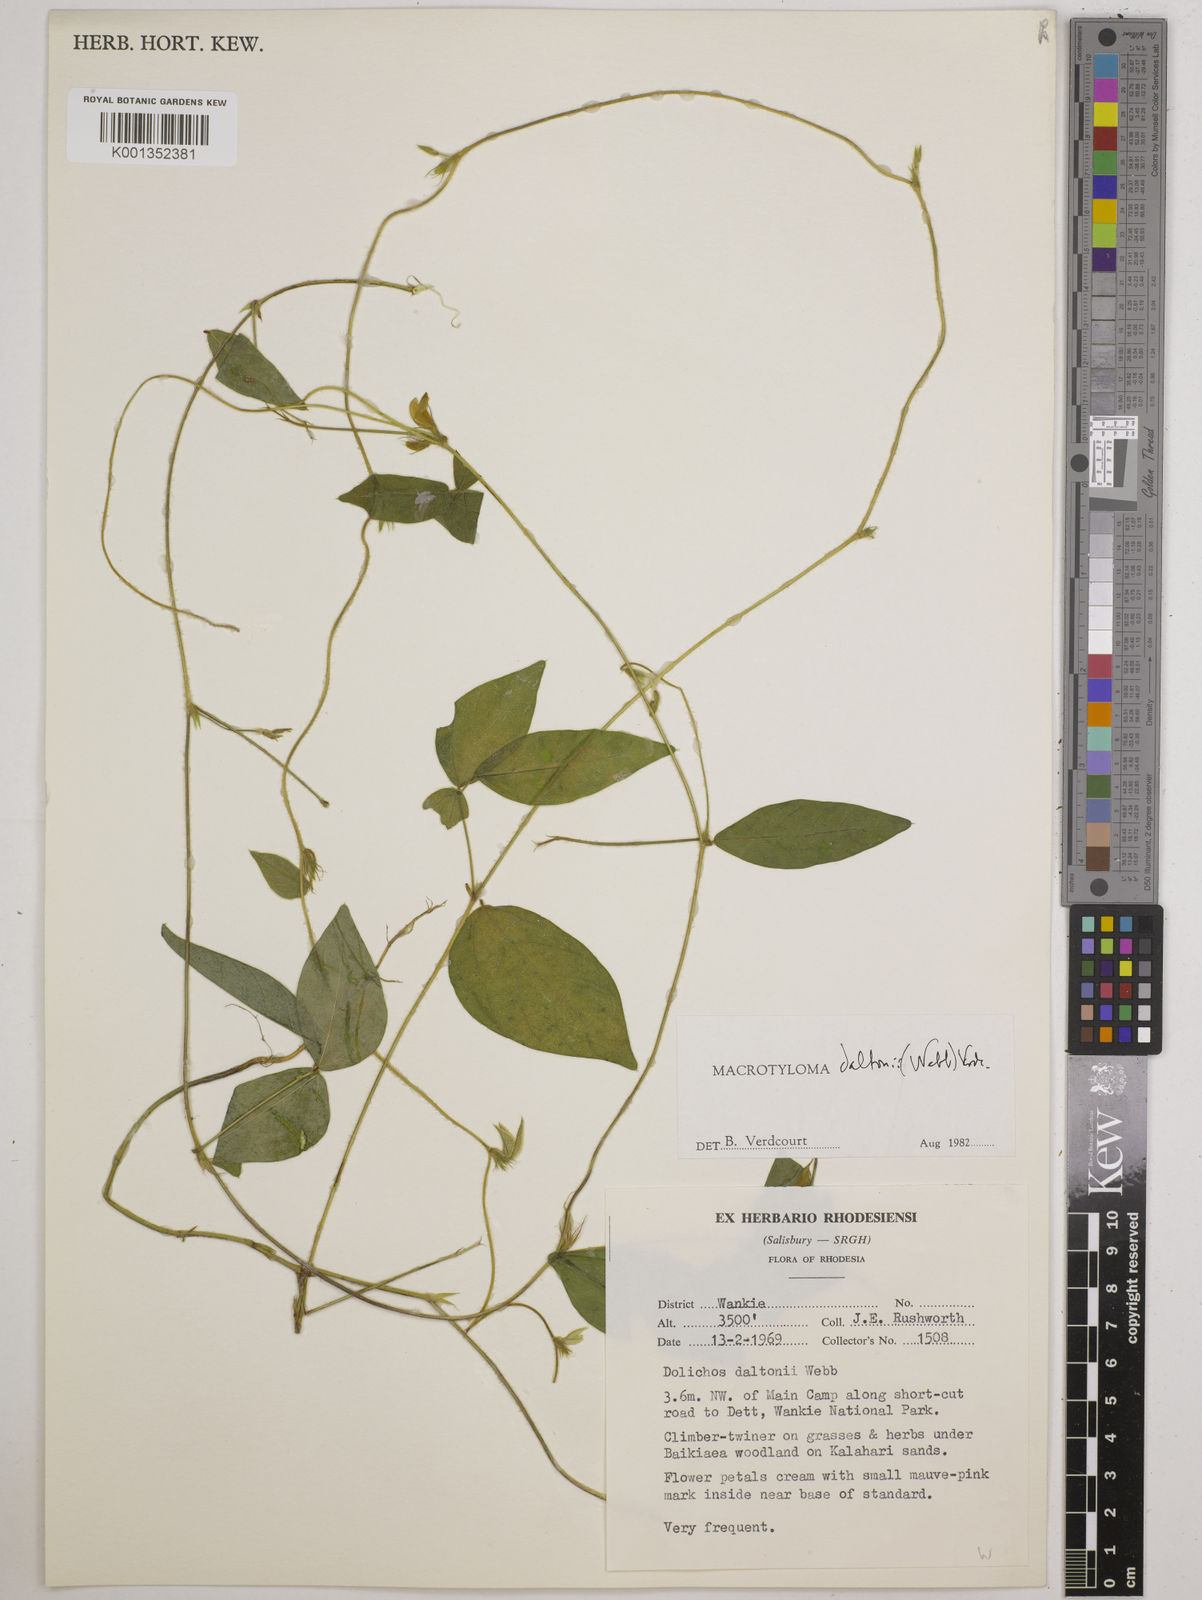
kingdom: Plantae
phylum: Tracheophyta
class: Magnoliopsida
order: Fabales
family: Fabaceae
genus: Macrotyloma
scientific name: Macrotyloma daltonii
